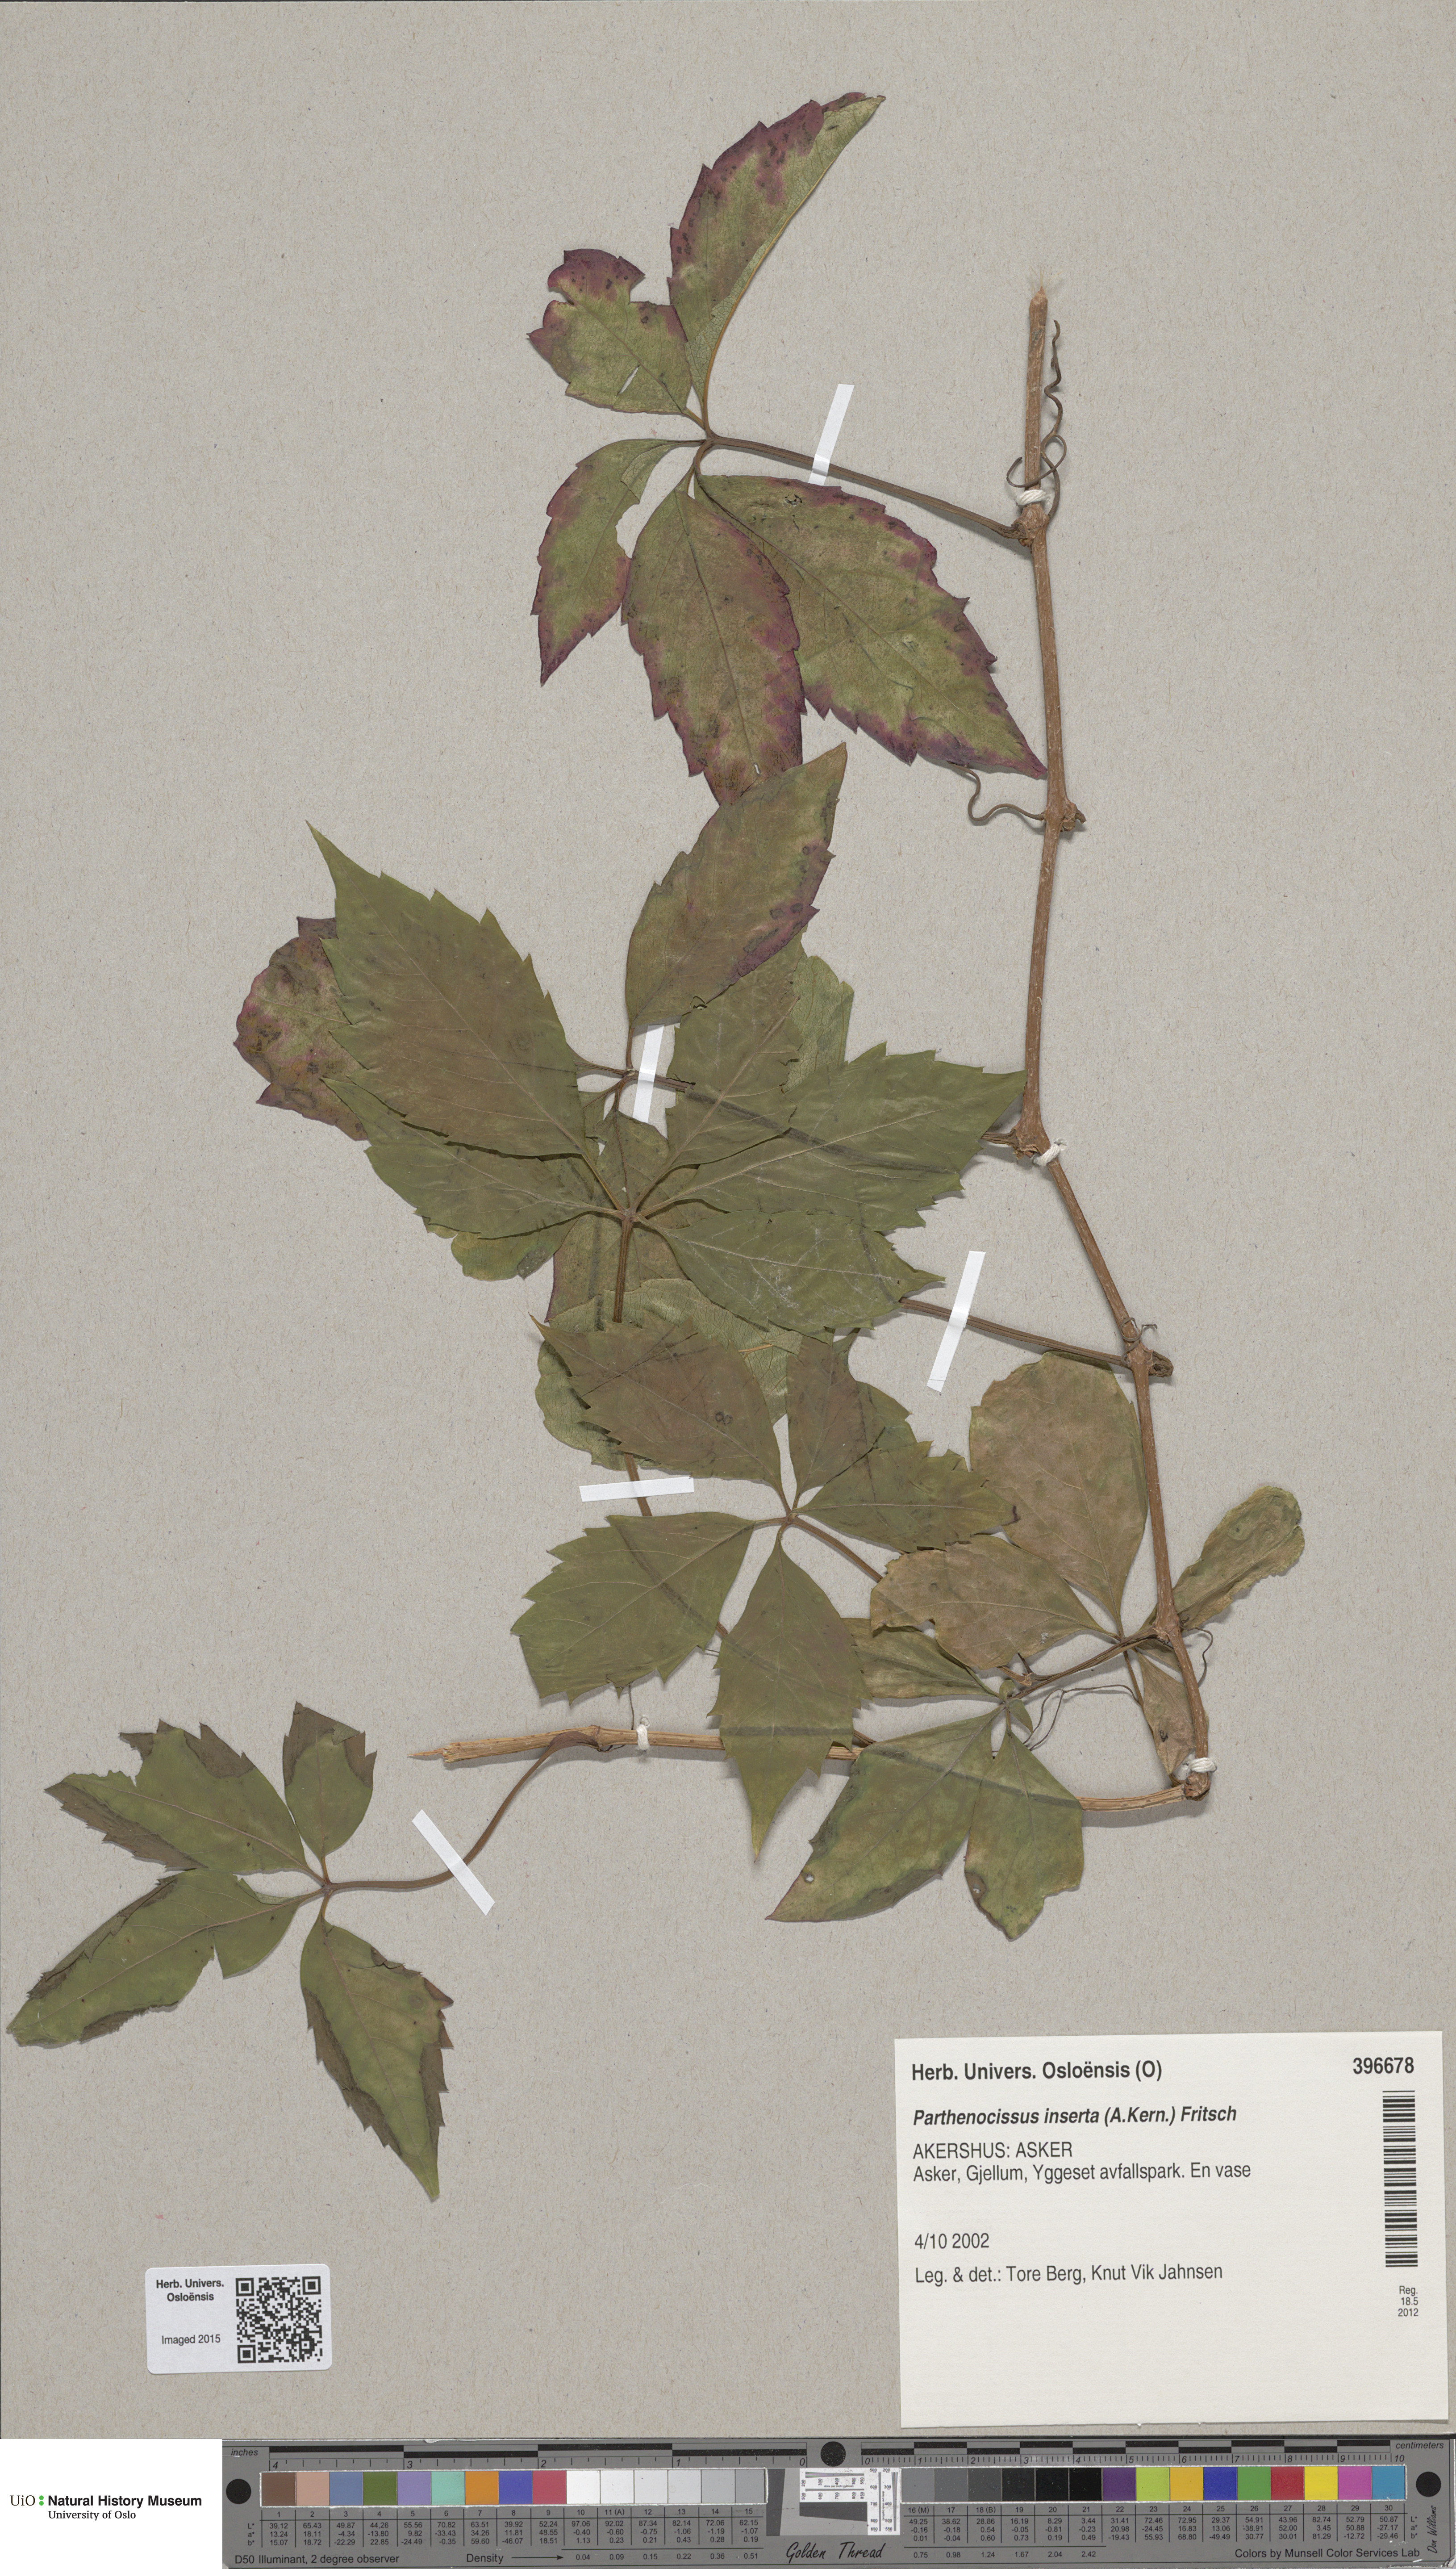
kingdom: Plantae
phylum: Tracheophyta
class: Magnoliopsida
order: Vitales
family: Vitaceae
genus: Parthenocissus
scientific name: Parthenocissus inserta
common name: False virginia-creeper
